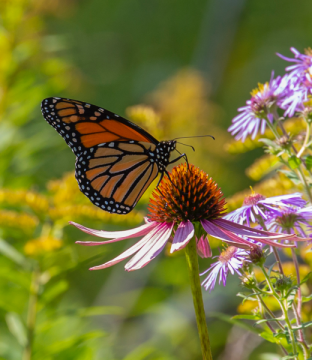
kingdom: Animalia
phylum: Arthropoda
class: Insecta
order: Lepidoptera
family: Nymphalidae
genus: Danaus
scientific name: Danaus plexippus
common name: Monarch
